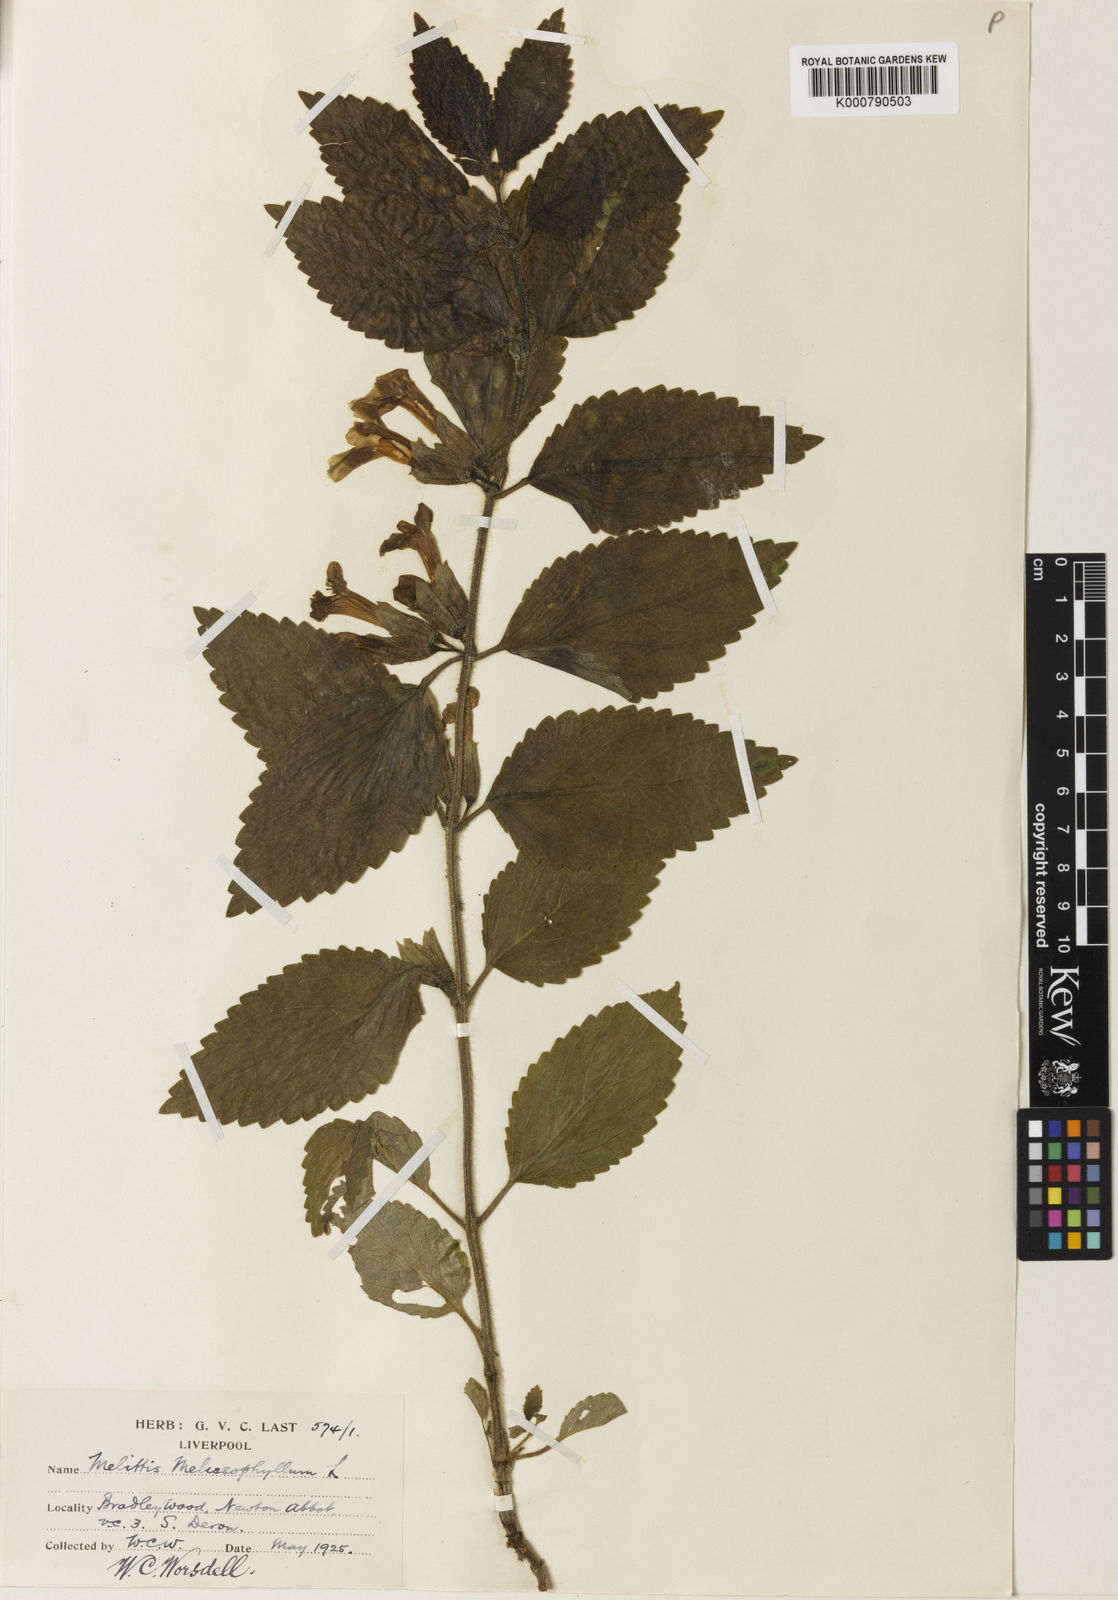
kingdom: Plantae
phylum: Tracheophyta
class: Magnoliopsida
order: Lamiales
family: Lamiaceae
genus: Melittis
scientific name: Melittis melissophyllum
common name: Bastard balm
